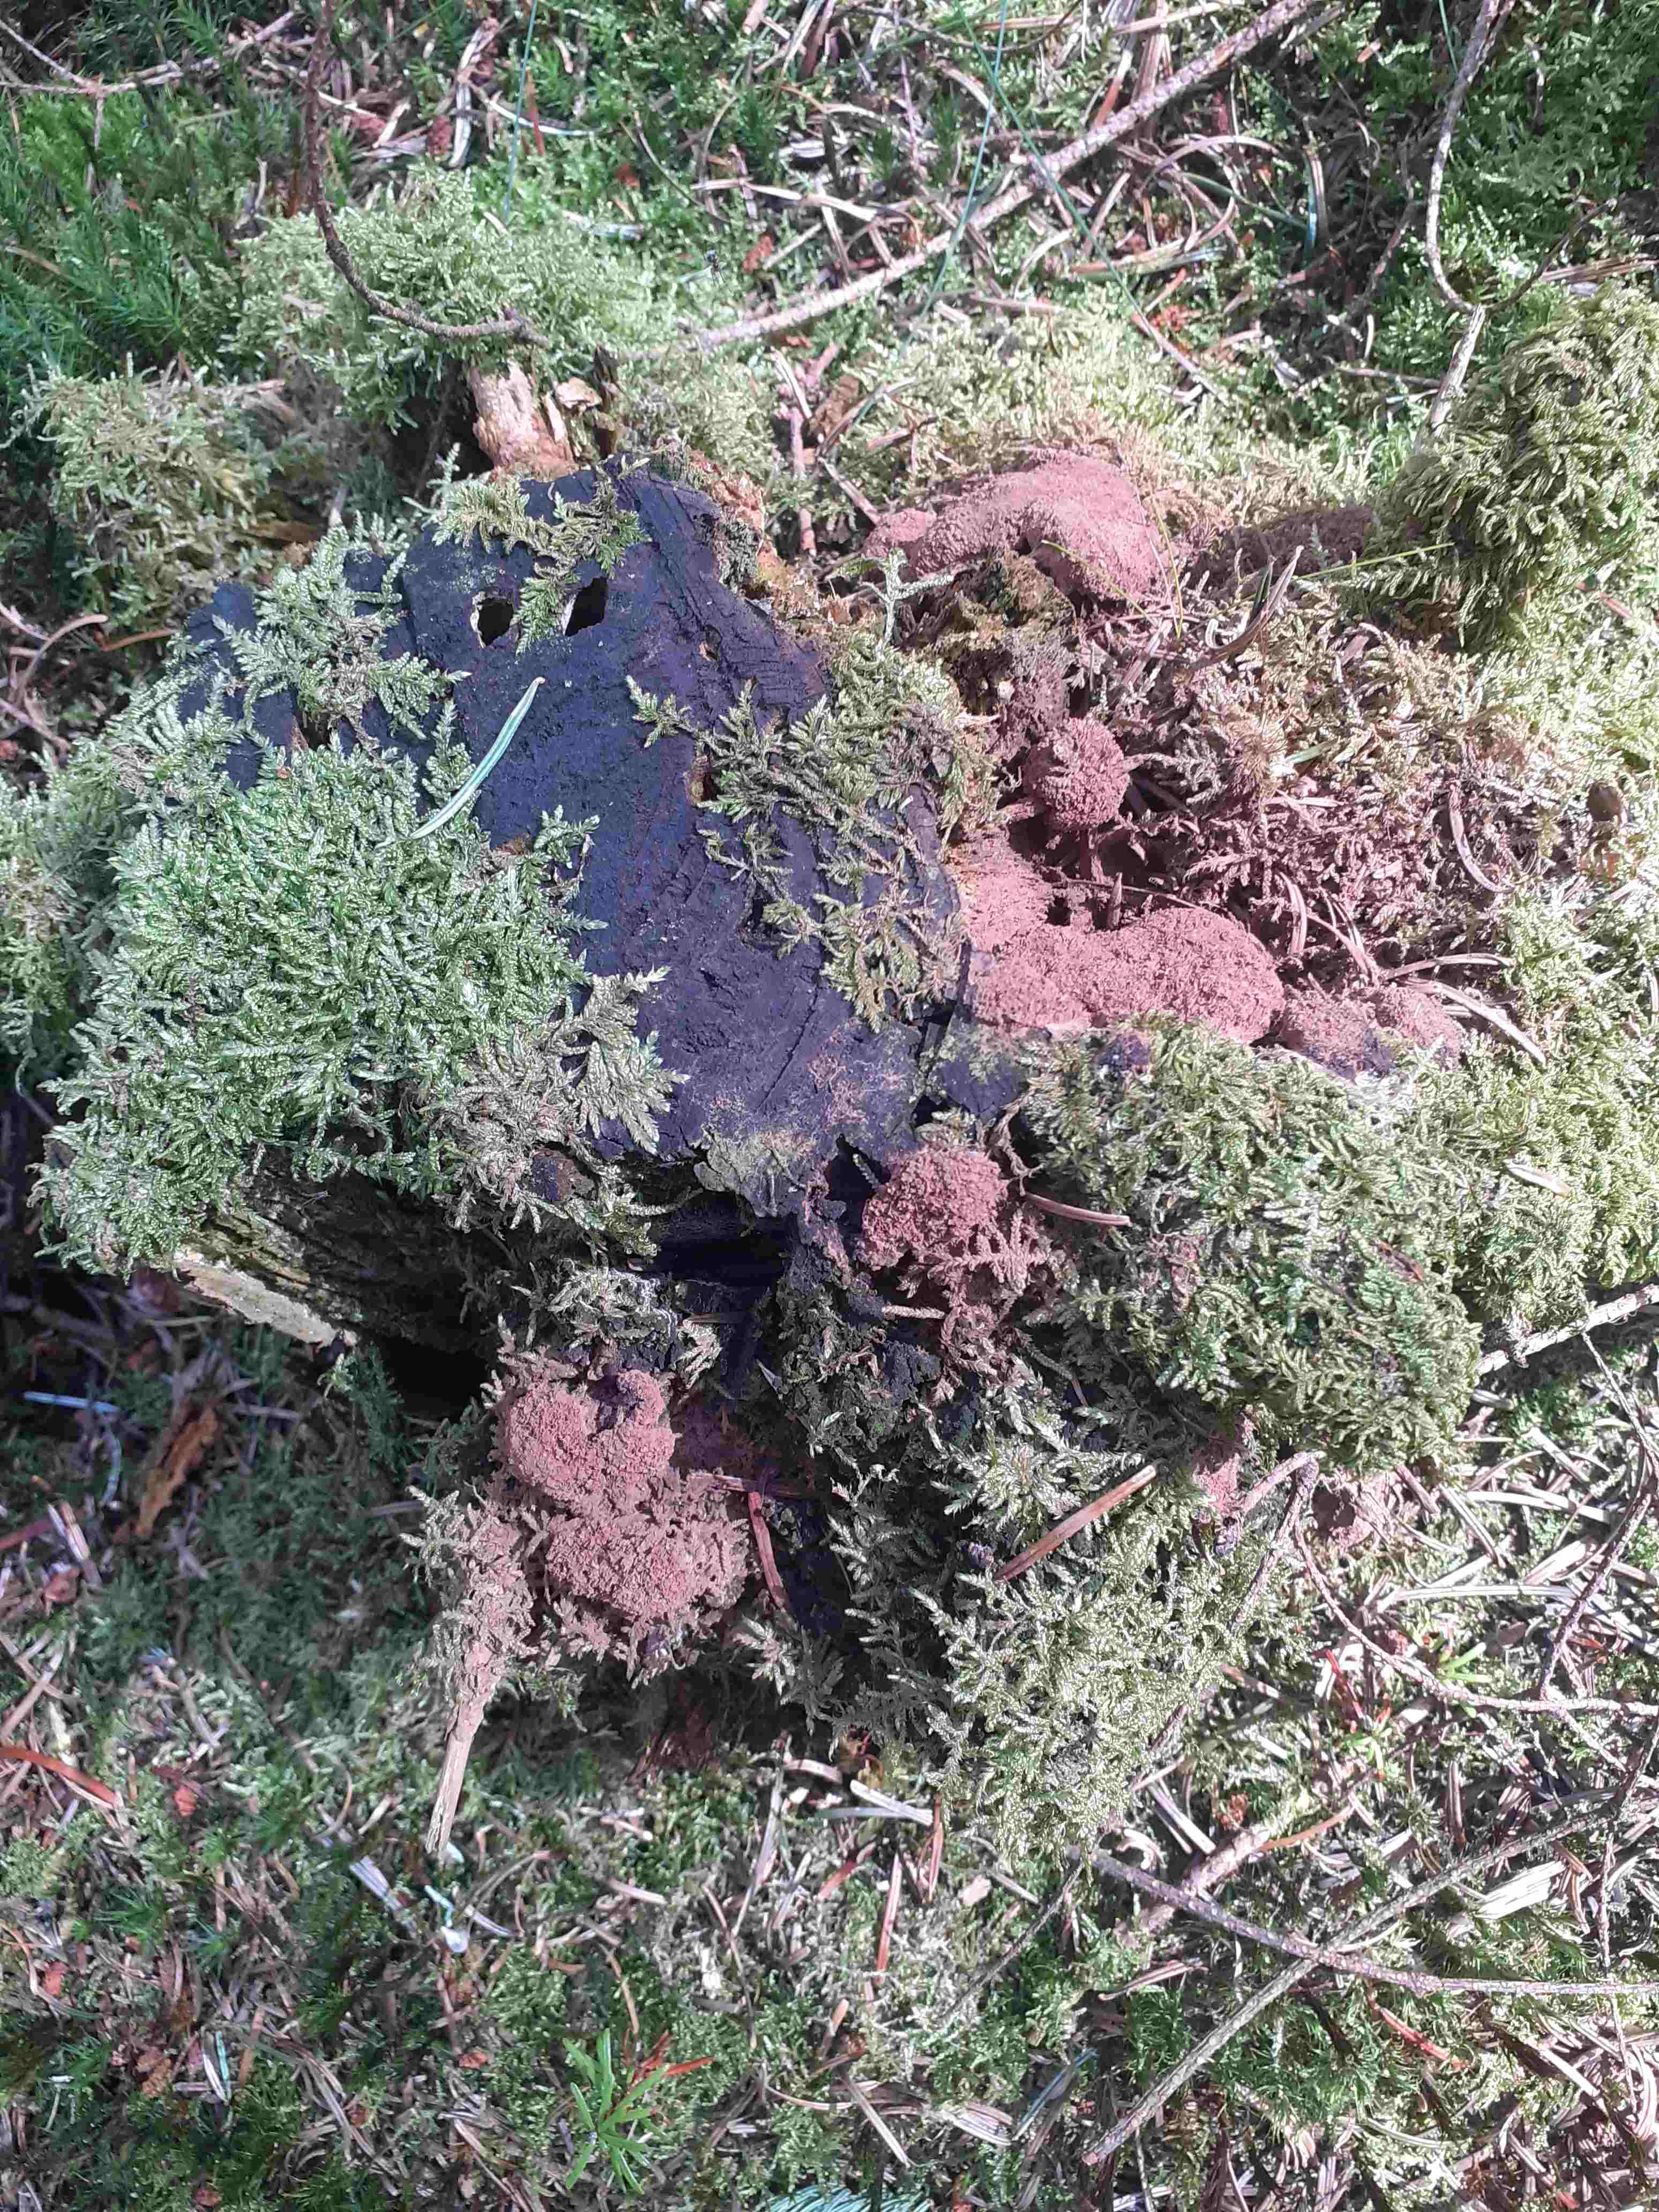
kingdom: Protozoa
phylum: Mycetozoa
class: Myxomycetes
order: Cribrariales
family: Tubiferaceae
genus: Tubifera
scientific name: Tubifera ferruginosa
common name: kanel-støvrør
